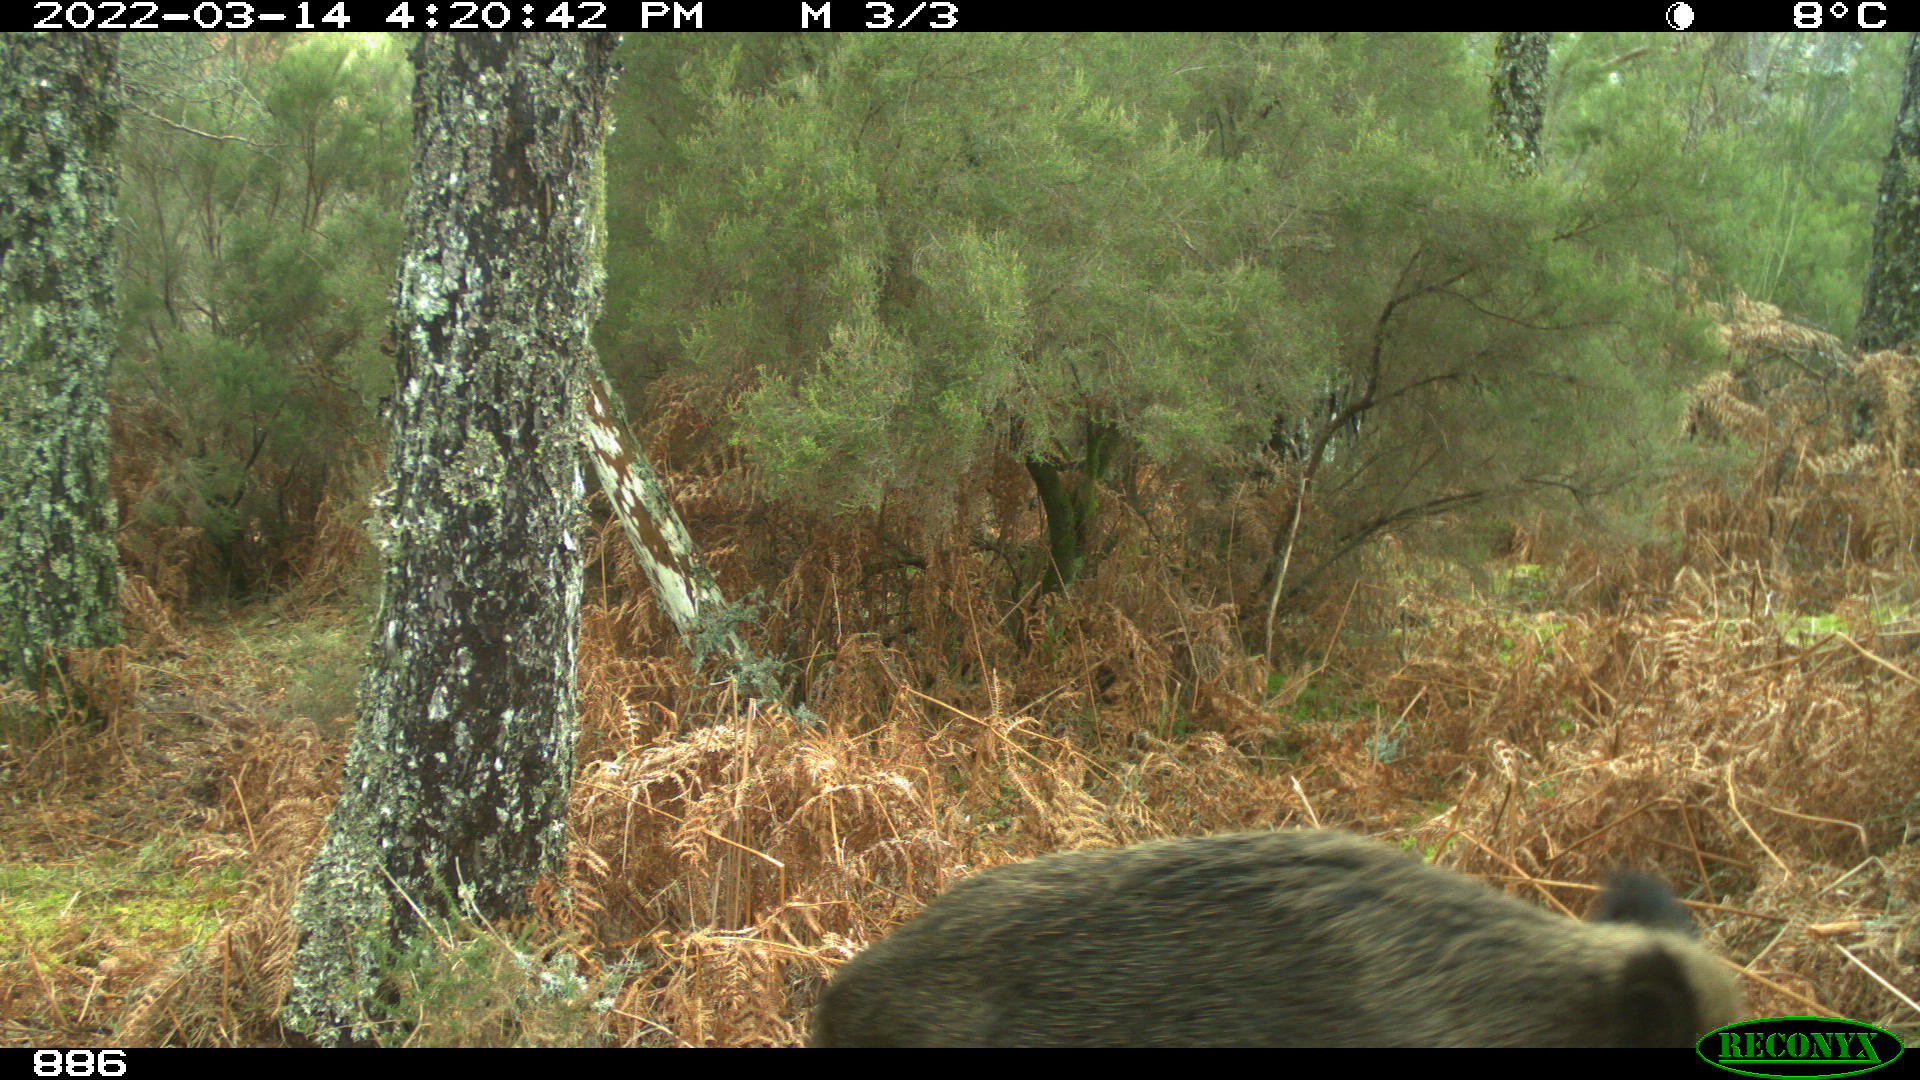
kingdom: Animalia
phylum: Chordata
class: Mammalia
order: Artiodactyla
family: Suidae
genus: Sus
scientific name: Sus scrofa
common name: Wild boar
